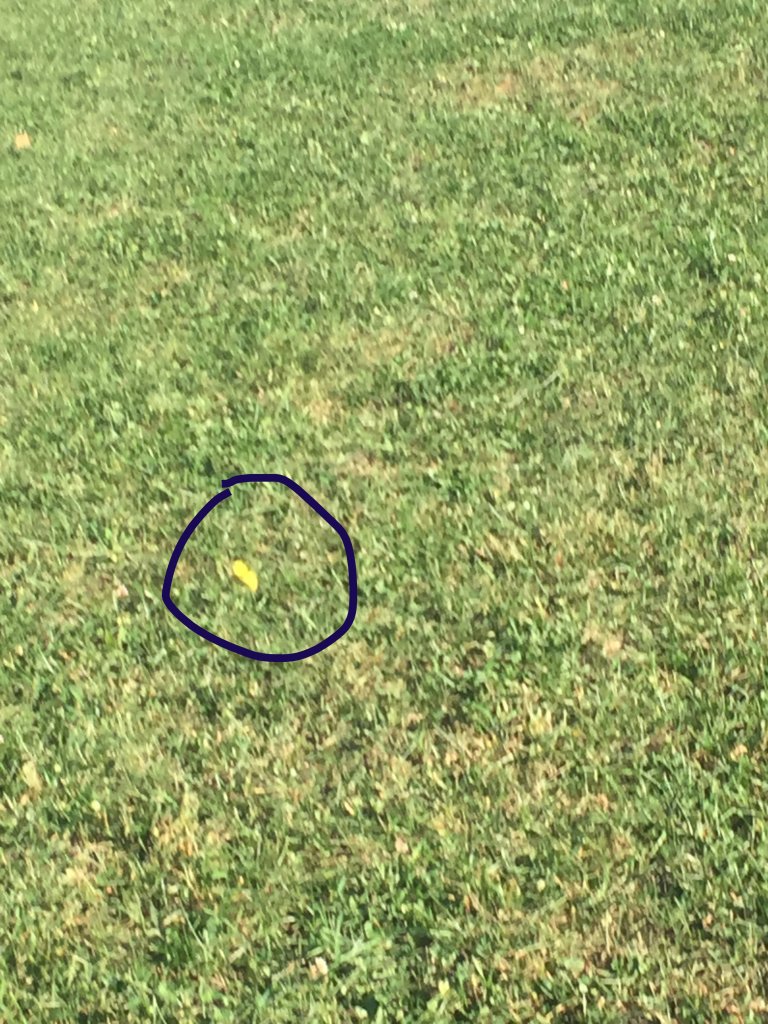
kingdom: Animalia
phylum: Arthropoda
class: Insecta
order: Lepidoptera
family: Pieridae
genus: Colias
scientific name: Colias philodice
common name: Clouded Sulphur
